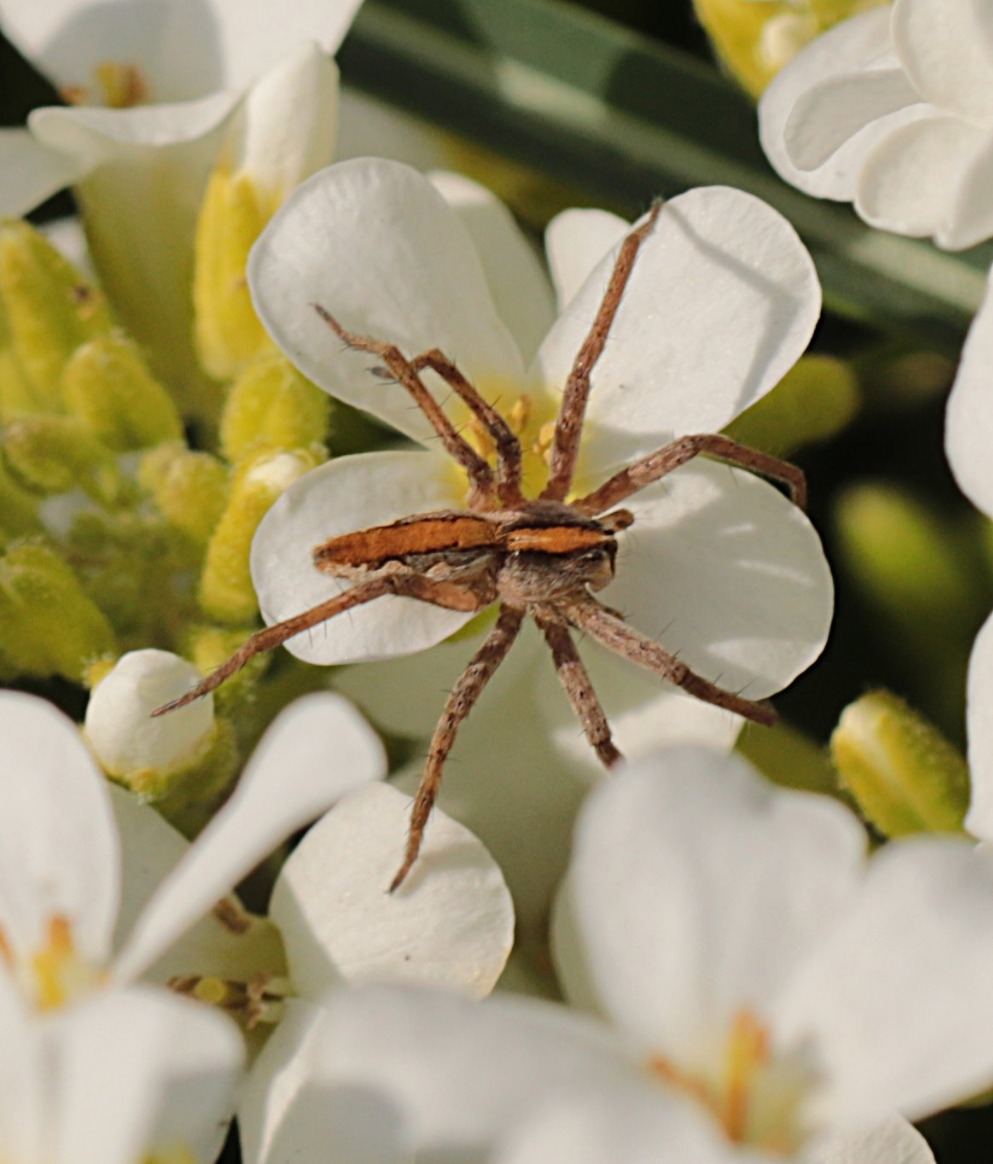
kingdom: Animalia
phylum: Arthropoda
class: Arachnida
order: Araneae
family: Pisauridae
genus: Pisaura
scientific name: Pisaura mirabilis
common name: Almindelig rovedderkop
